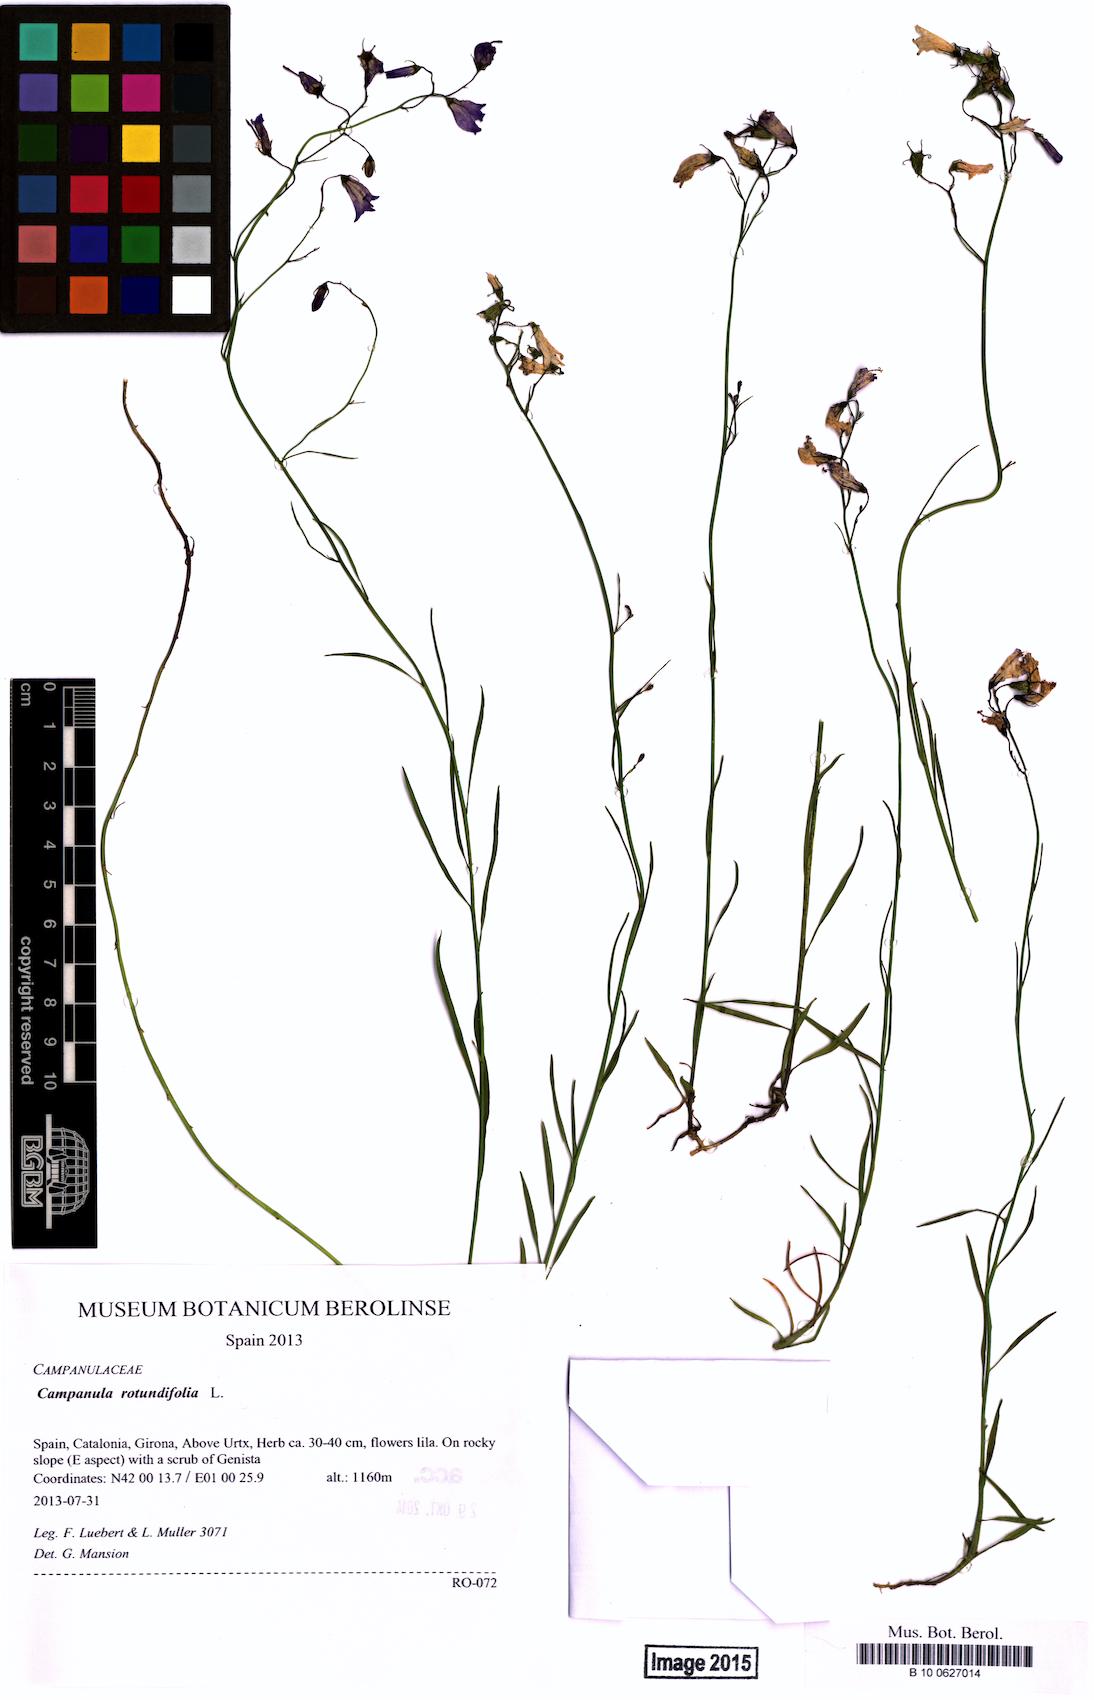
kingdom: Plantae
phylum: Tracheophyta
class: Magnoliopsida
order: Asterales
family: Campanulaceae
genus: Campanula
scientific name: Campanula rotundifolia
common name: Harebell
